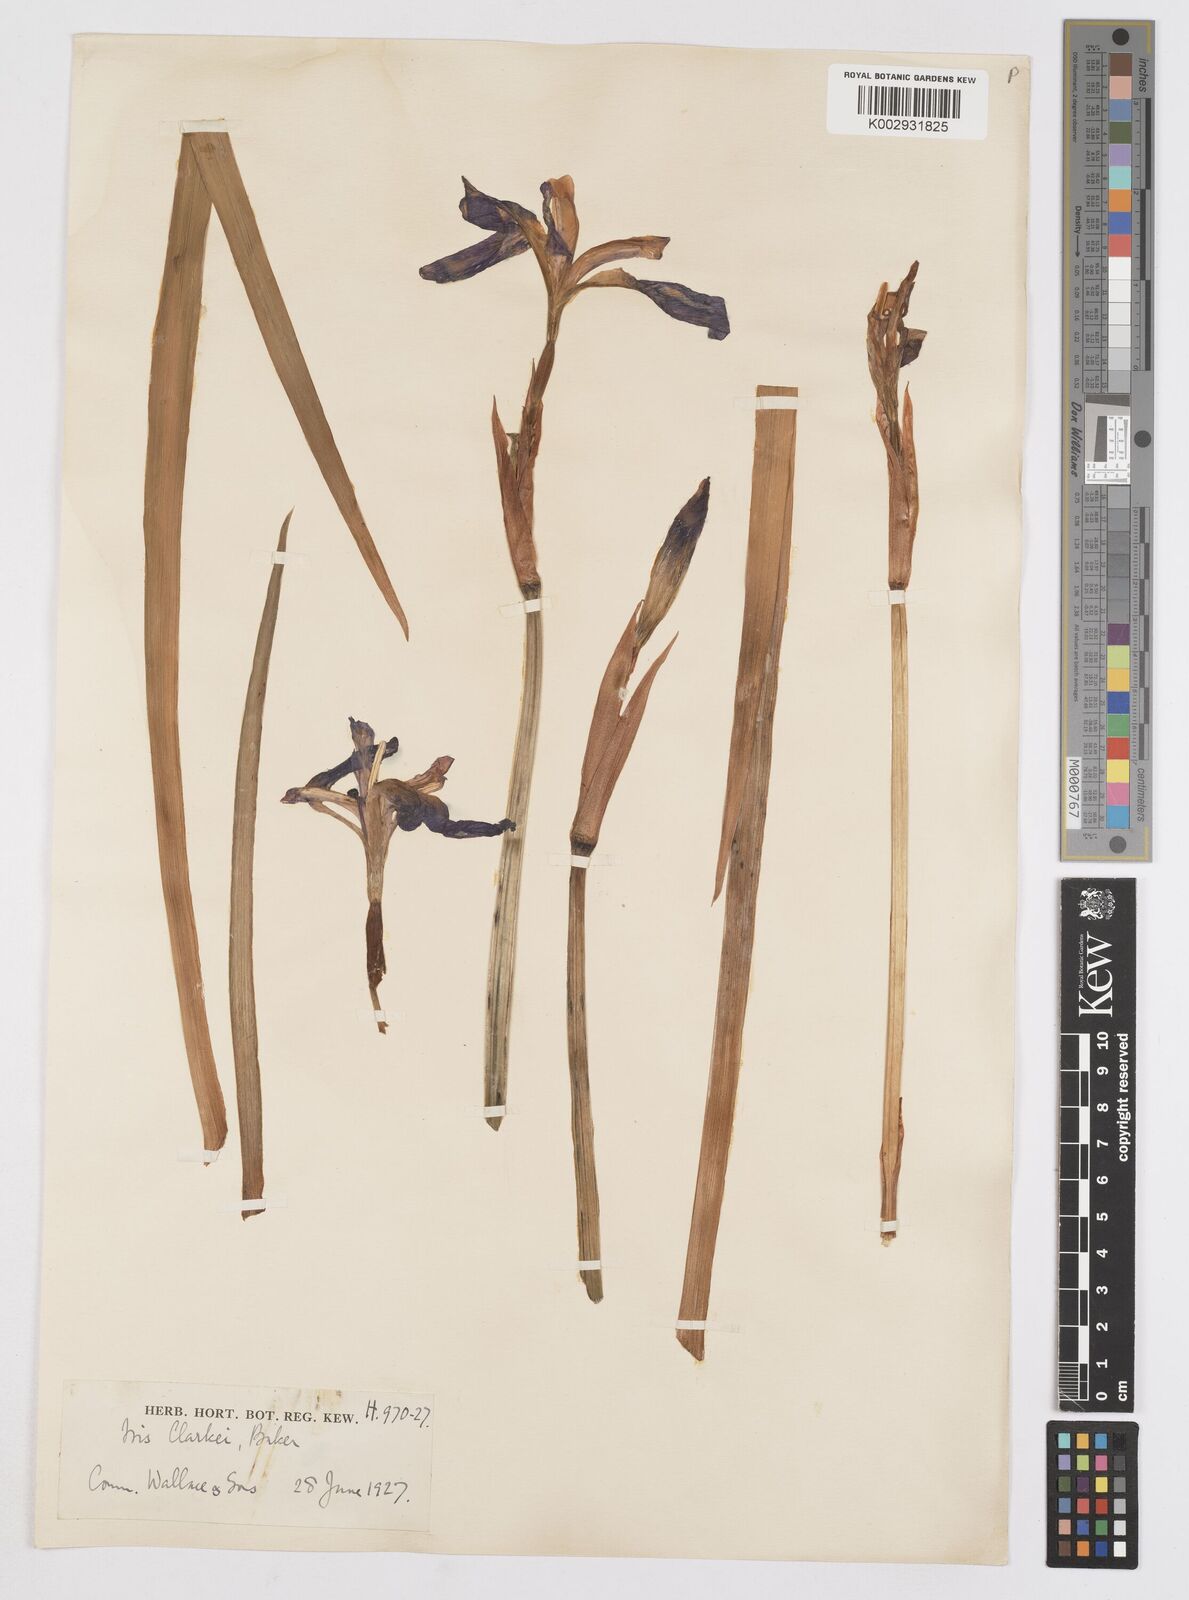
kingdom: Plantae
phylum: Tracheophyta
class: Liliopsida
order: Asparagales
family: Iridaceae
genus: Iris
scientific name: Iris clarkei
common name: Tibet iris
